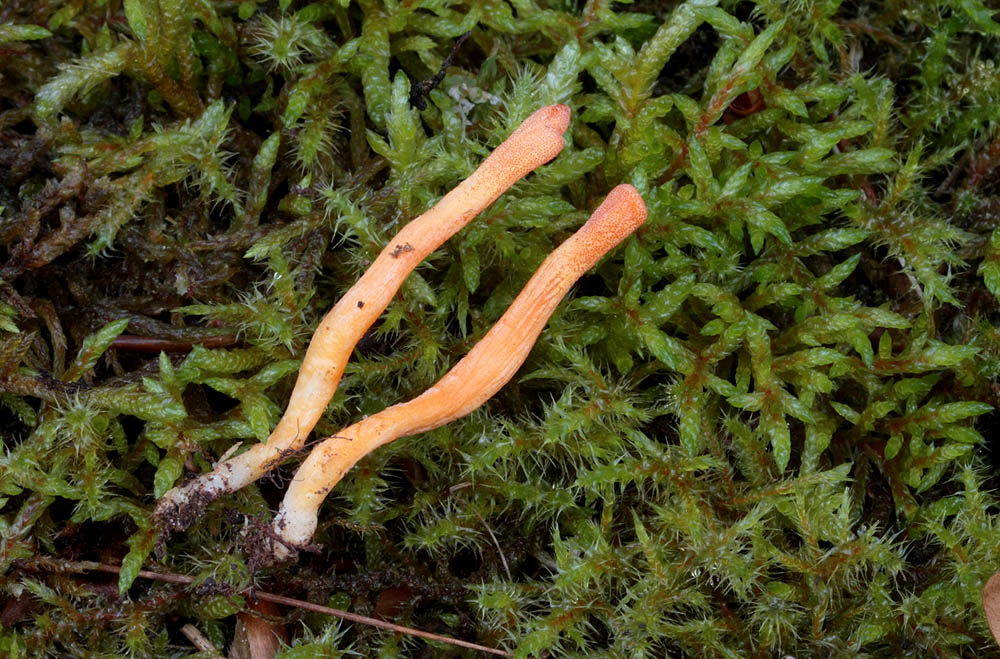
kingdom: Fungi
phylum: Ascomycota
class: Sordariomycetes
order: Hypocreales
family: Cordycipitaceae
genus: Cordyceps
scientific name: Cordyceps militaris
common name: puppe-snyltekølle
